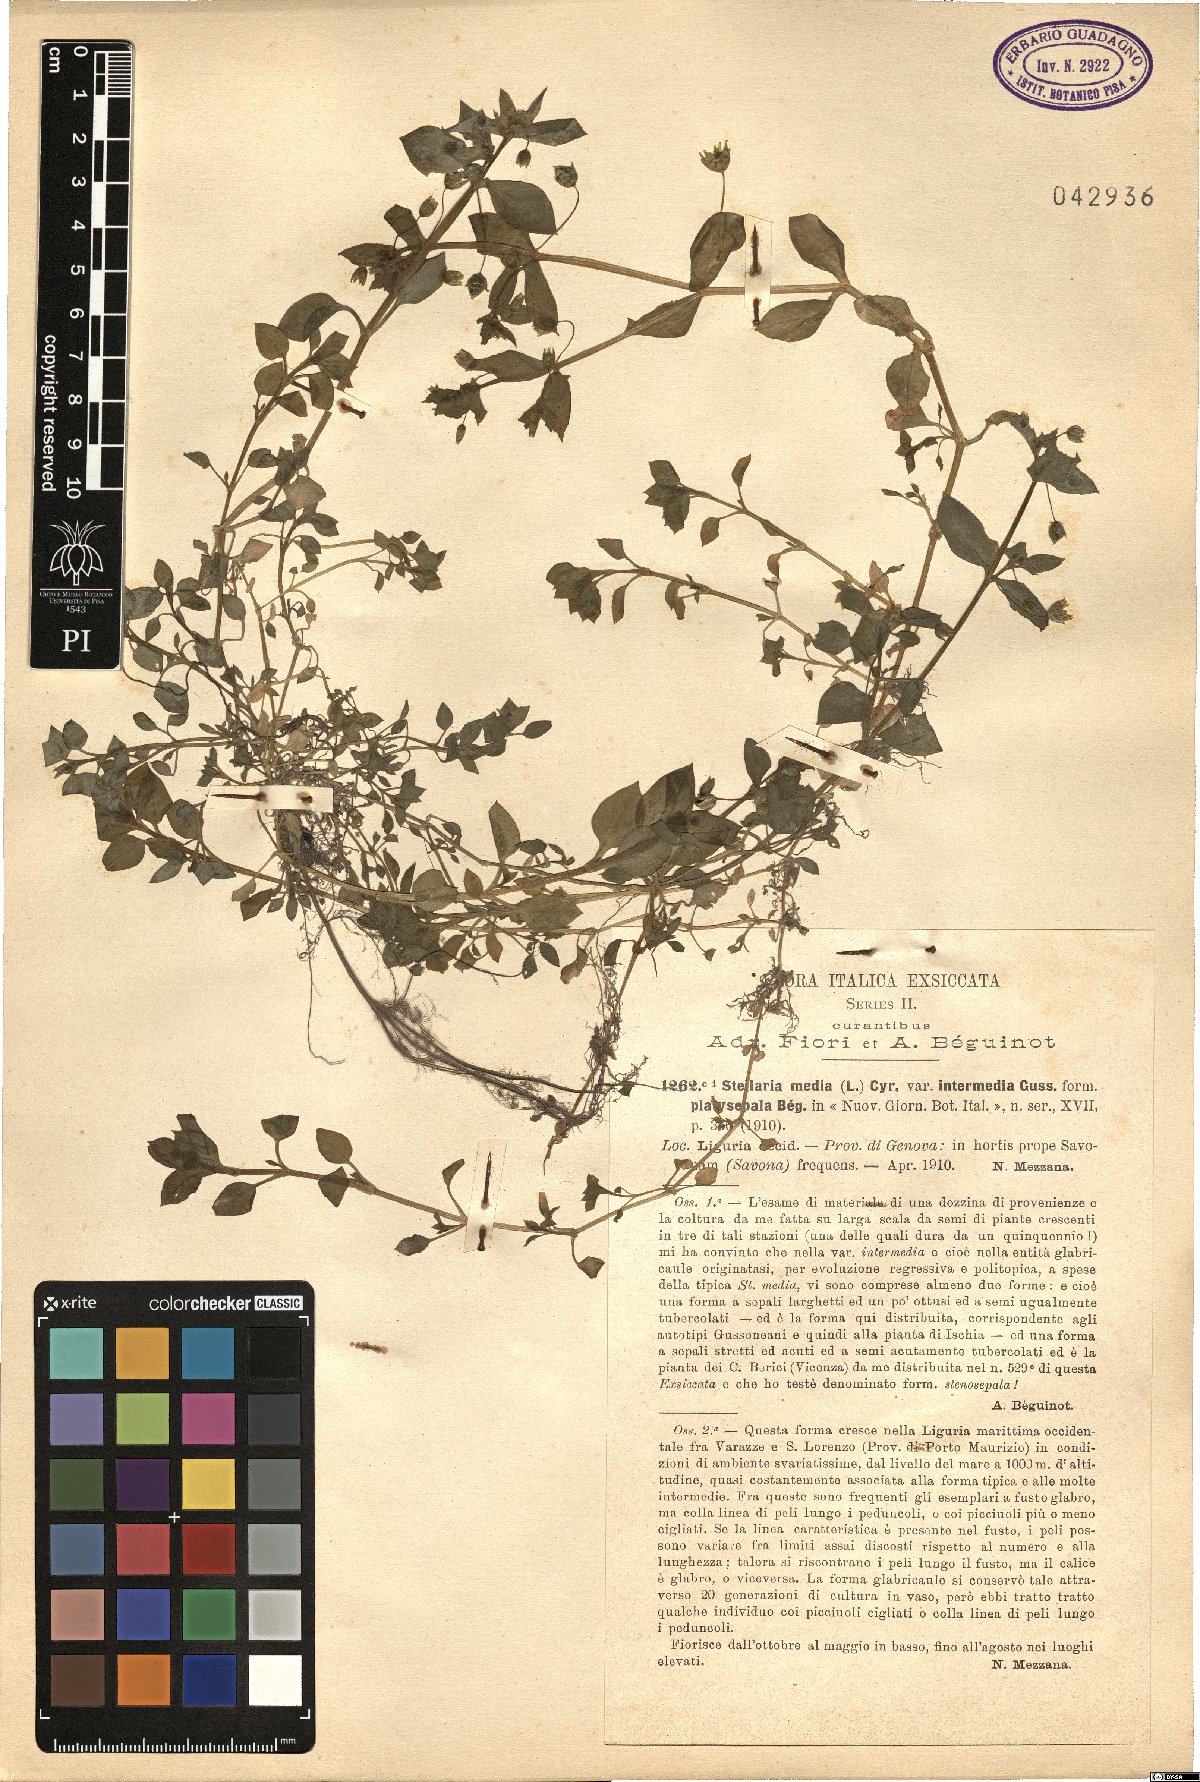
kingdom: Plantae
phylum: Tracheophyta
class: Magnoliopsida
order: Caryophyllales
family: Caryophyllaceae
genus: Stellaria
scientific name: Stellaria media
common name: Common chickweed
